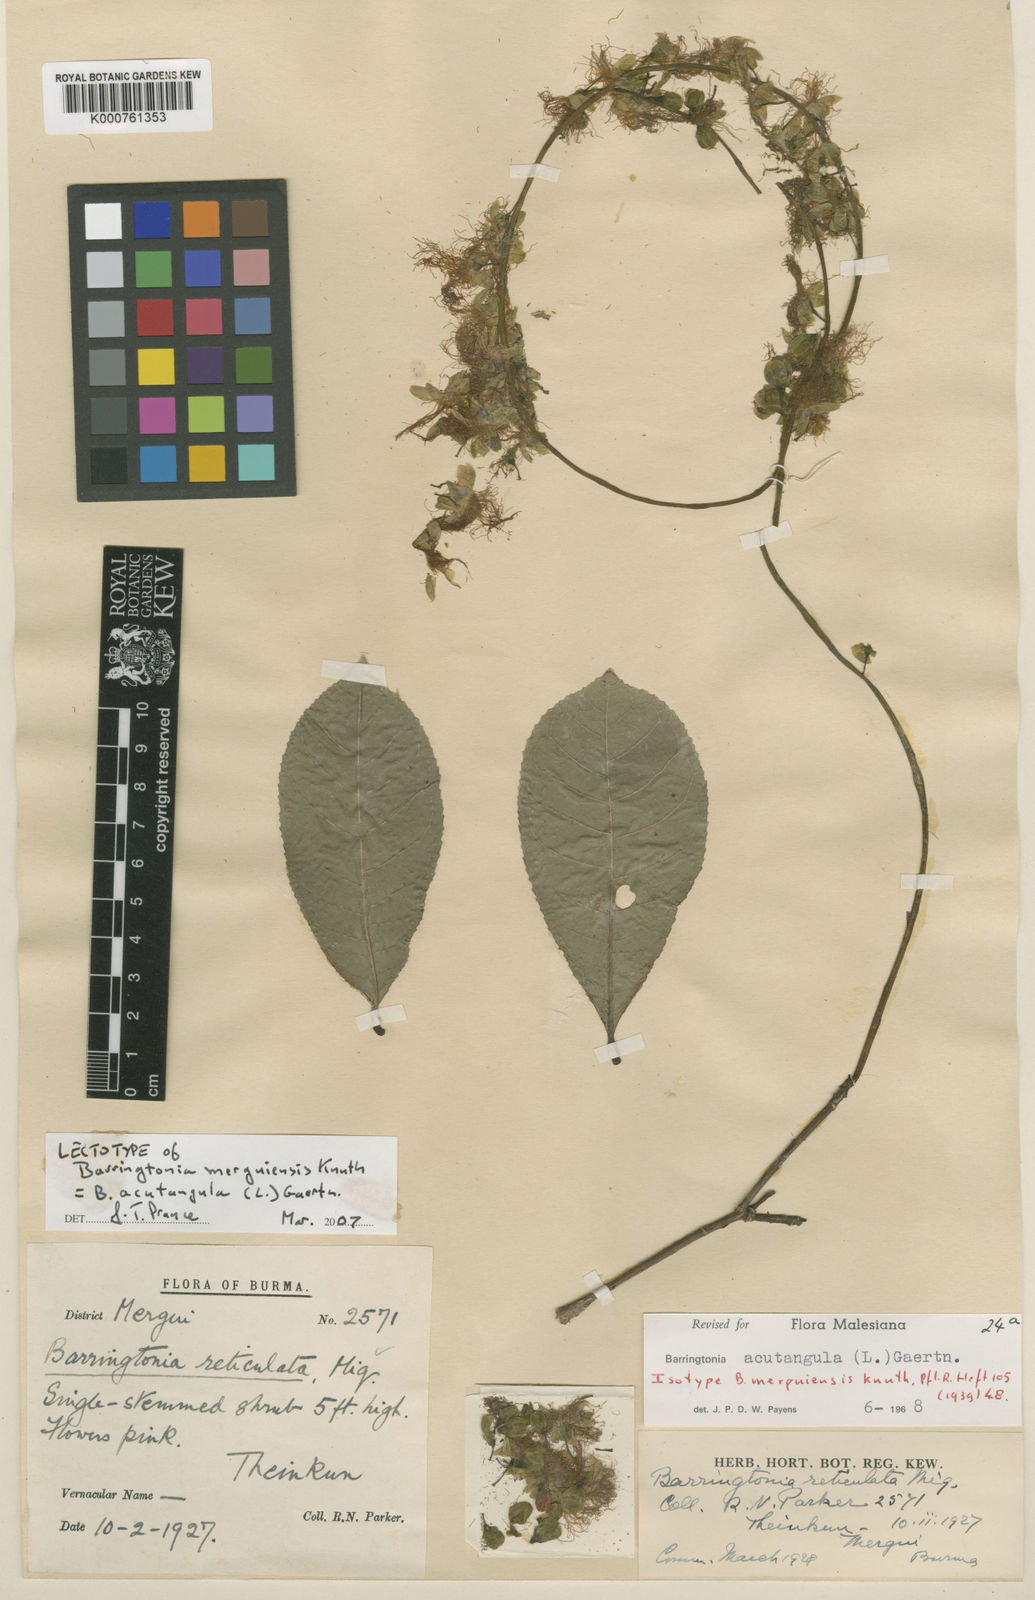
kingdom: Plantae
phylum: Tracheophyta
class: Magnoliopsida
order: Ericales
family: Lecythidaceae
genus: Barringtonia
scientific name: Barringtonia acutangula
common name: Freshwater mangrove
